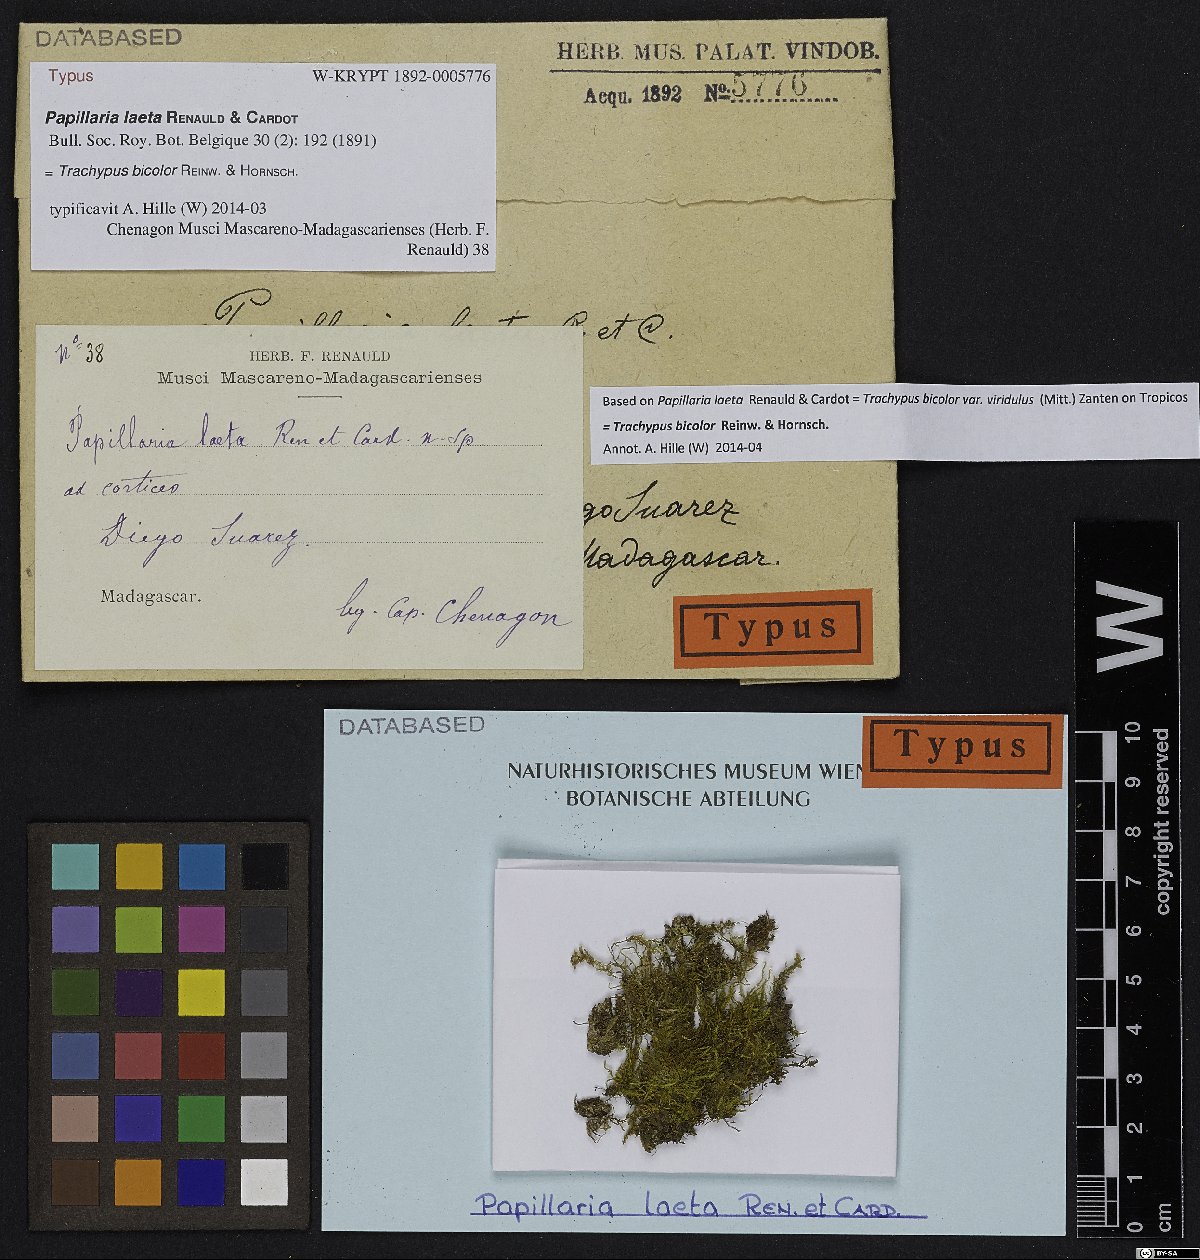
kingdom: Plantae
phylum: Bryophyta
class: Bryopsida
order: Hypnales
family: Meteoriaceae
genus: Trachypus
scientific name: Trachypus bicolor
